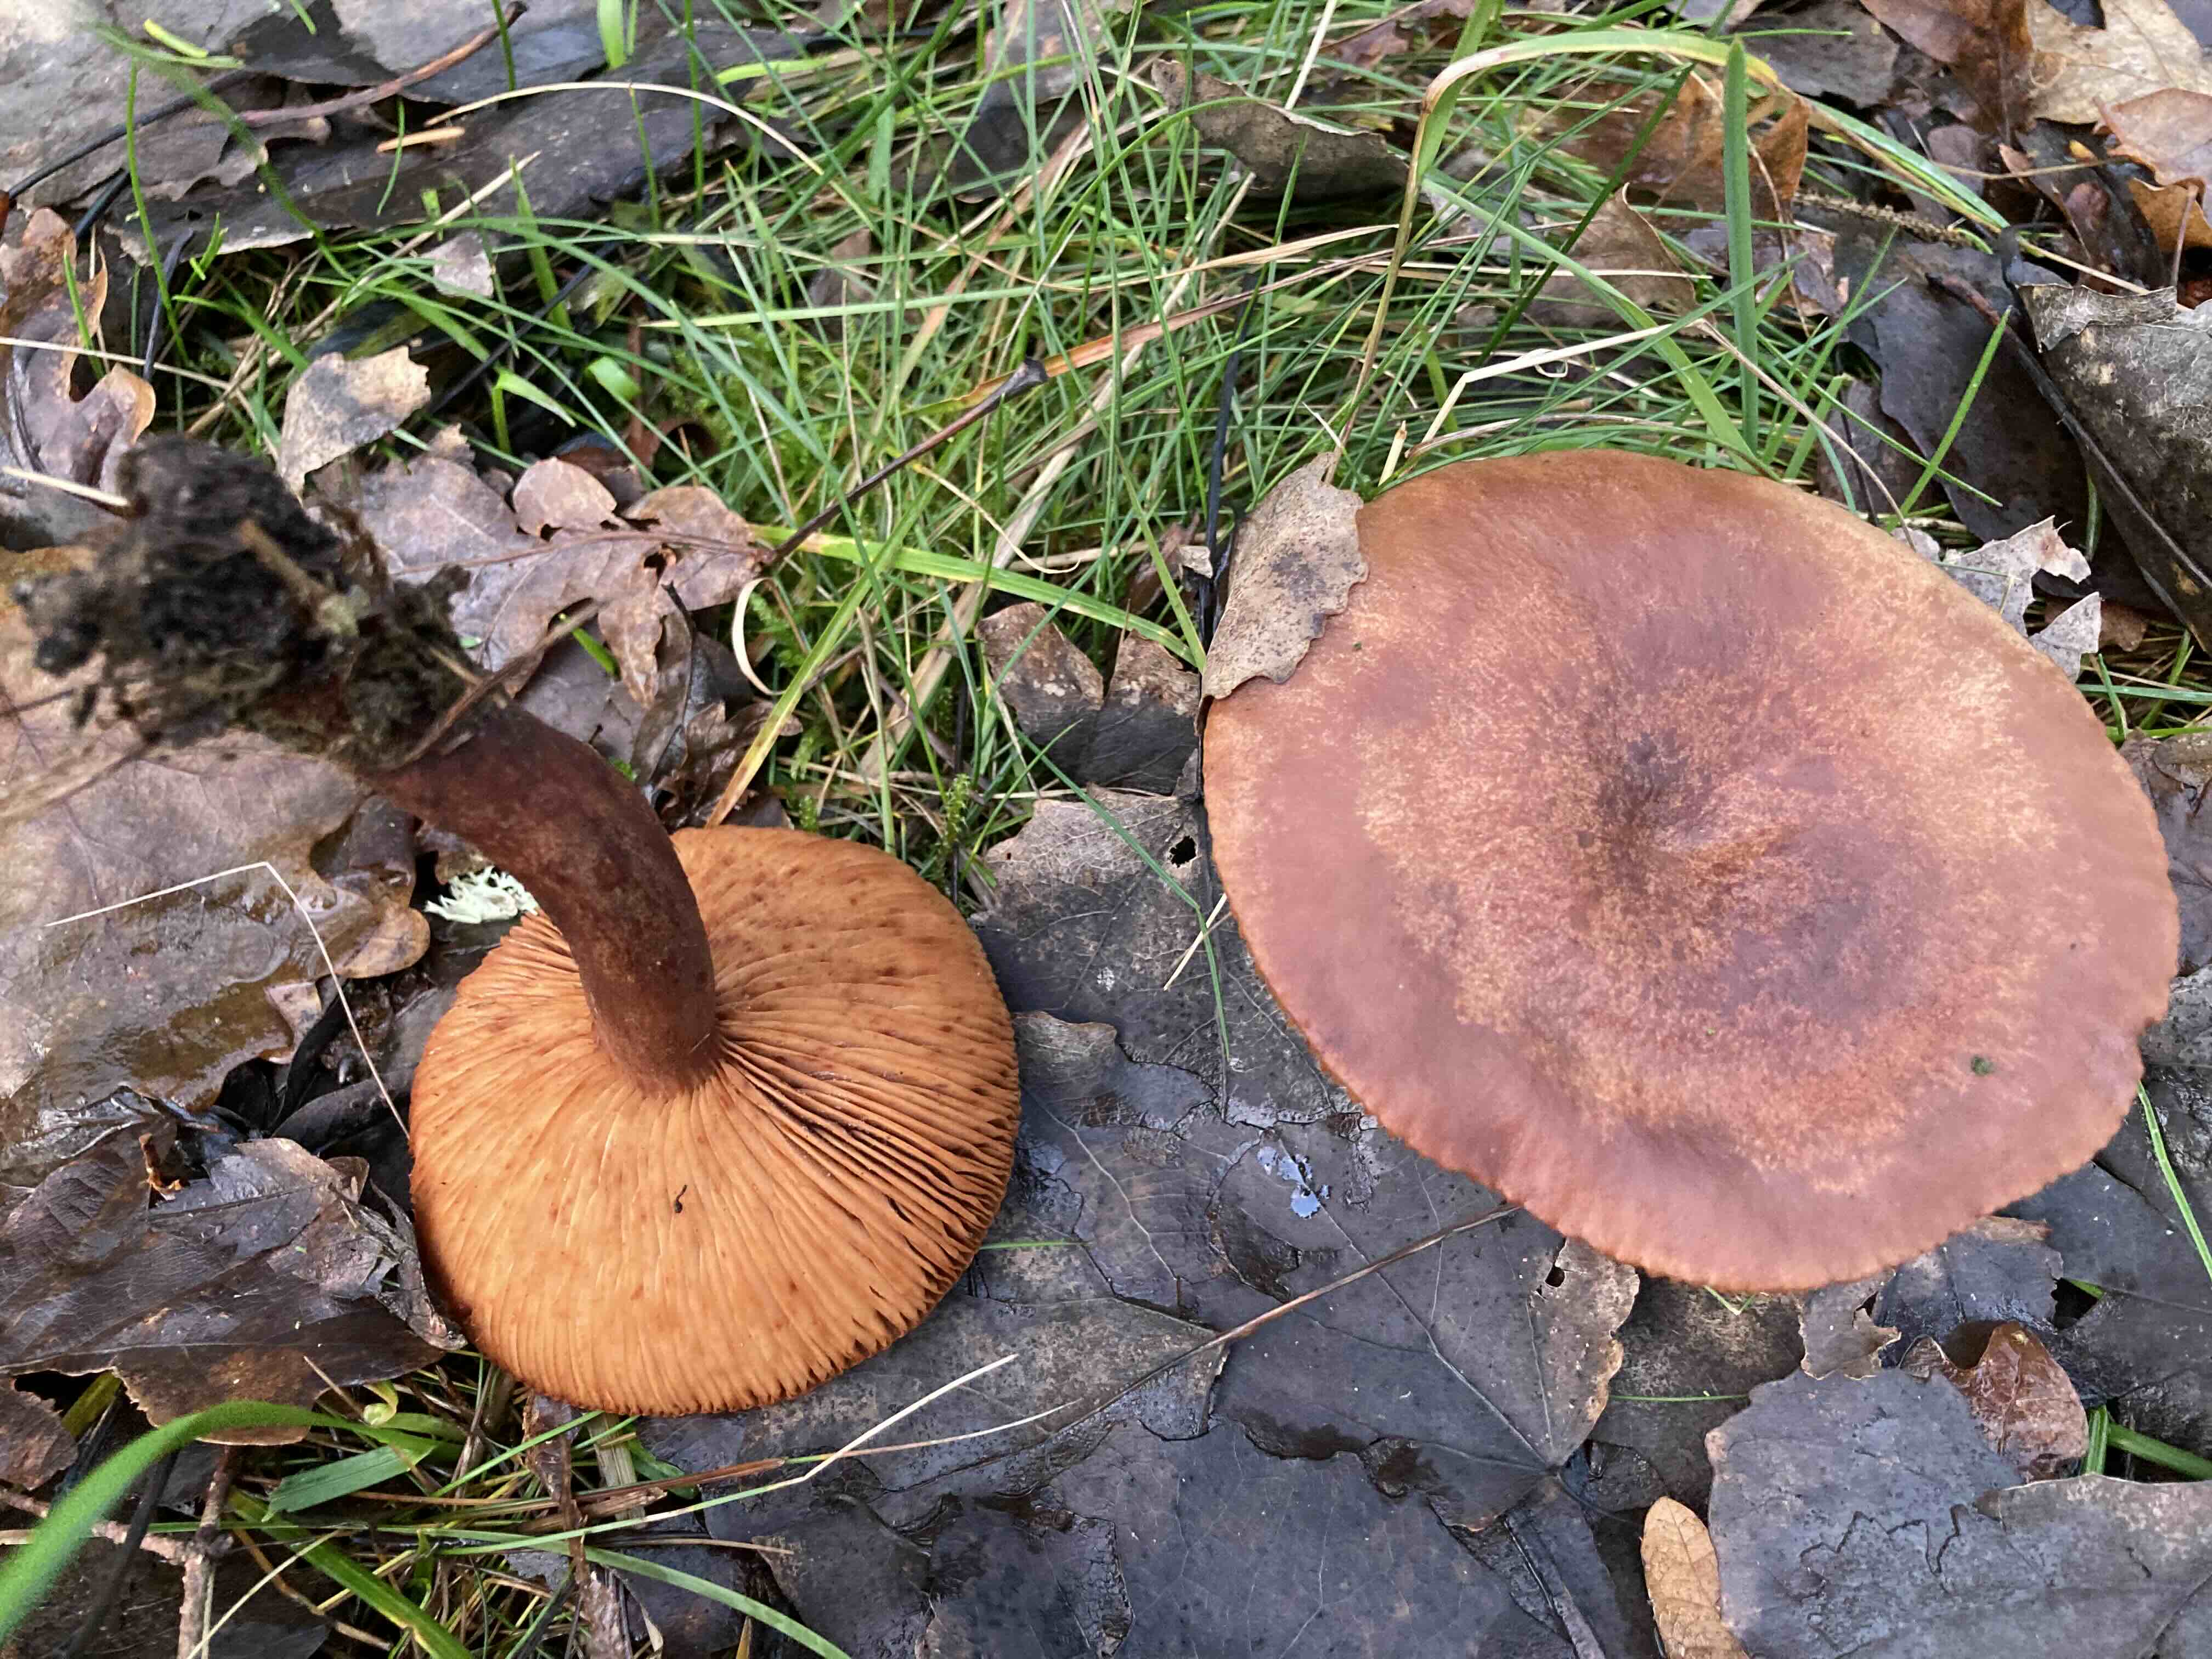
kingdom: Fungi
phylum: Basidiomycota
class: Agaricomycetes
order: Russulales
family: Russulaceae
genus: Lactarius
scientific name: Lactarius
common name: mælkehat
